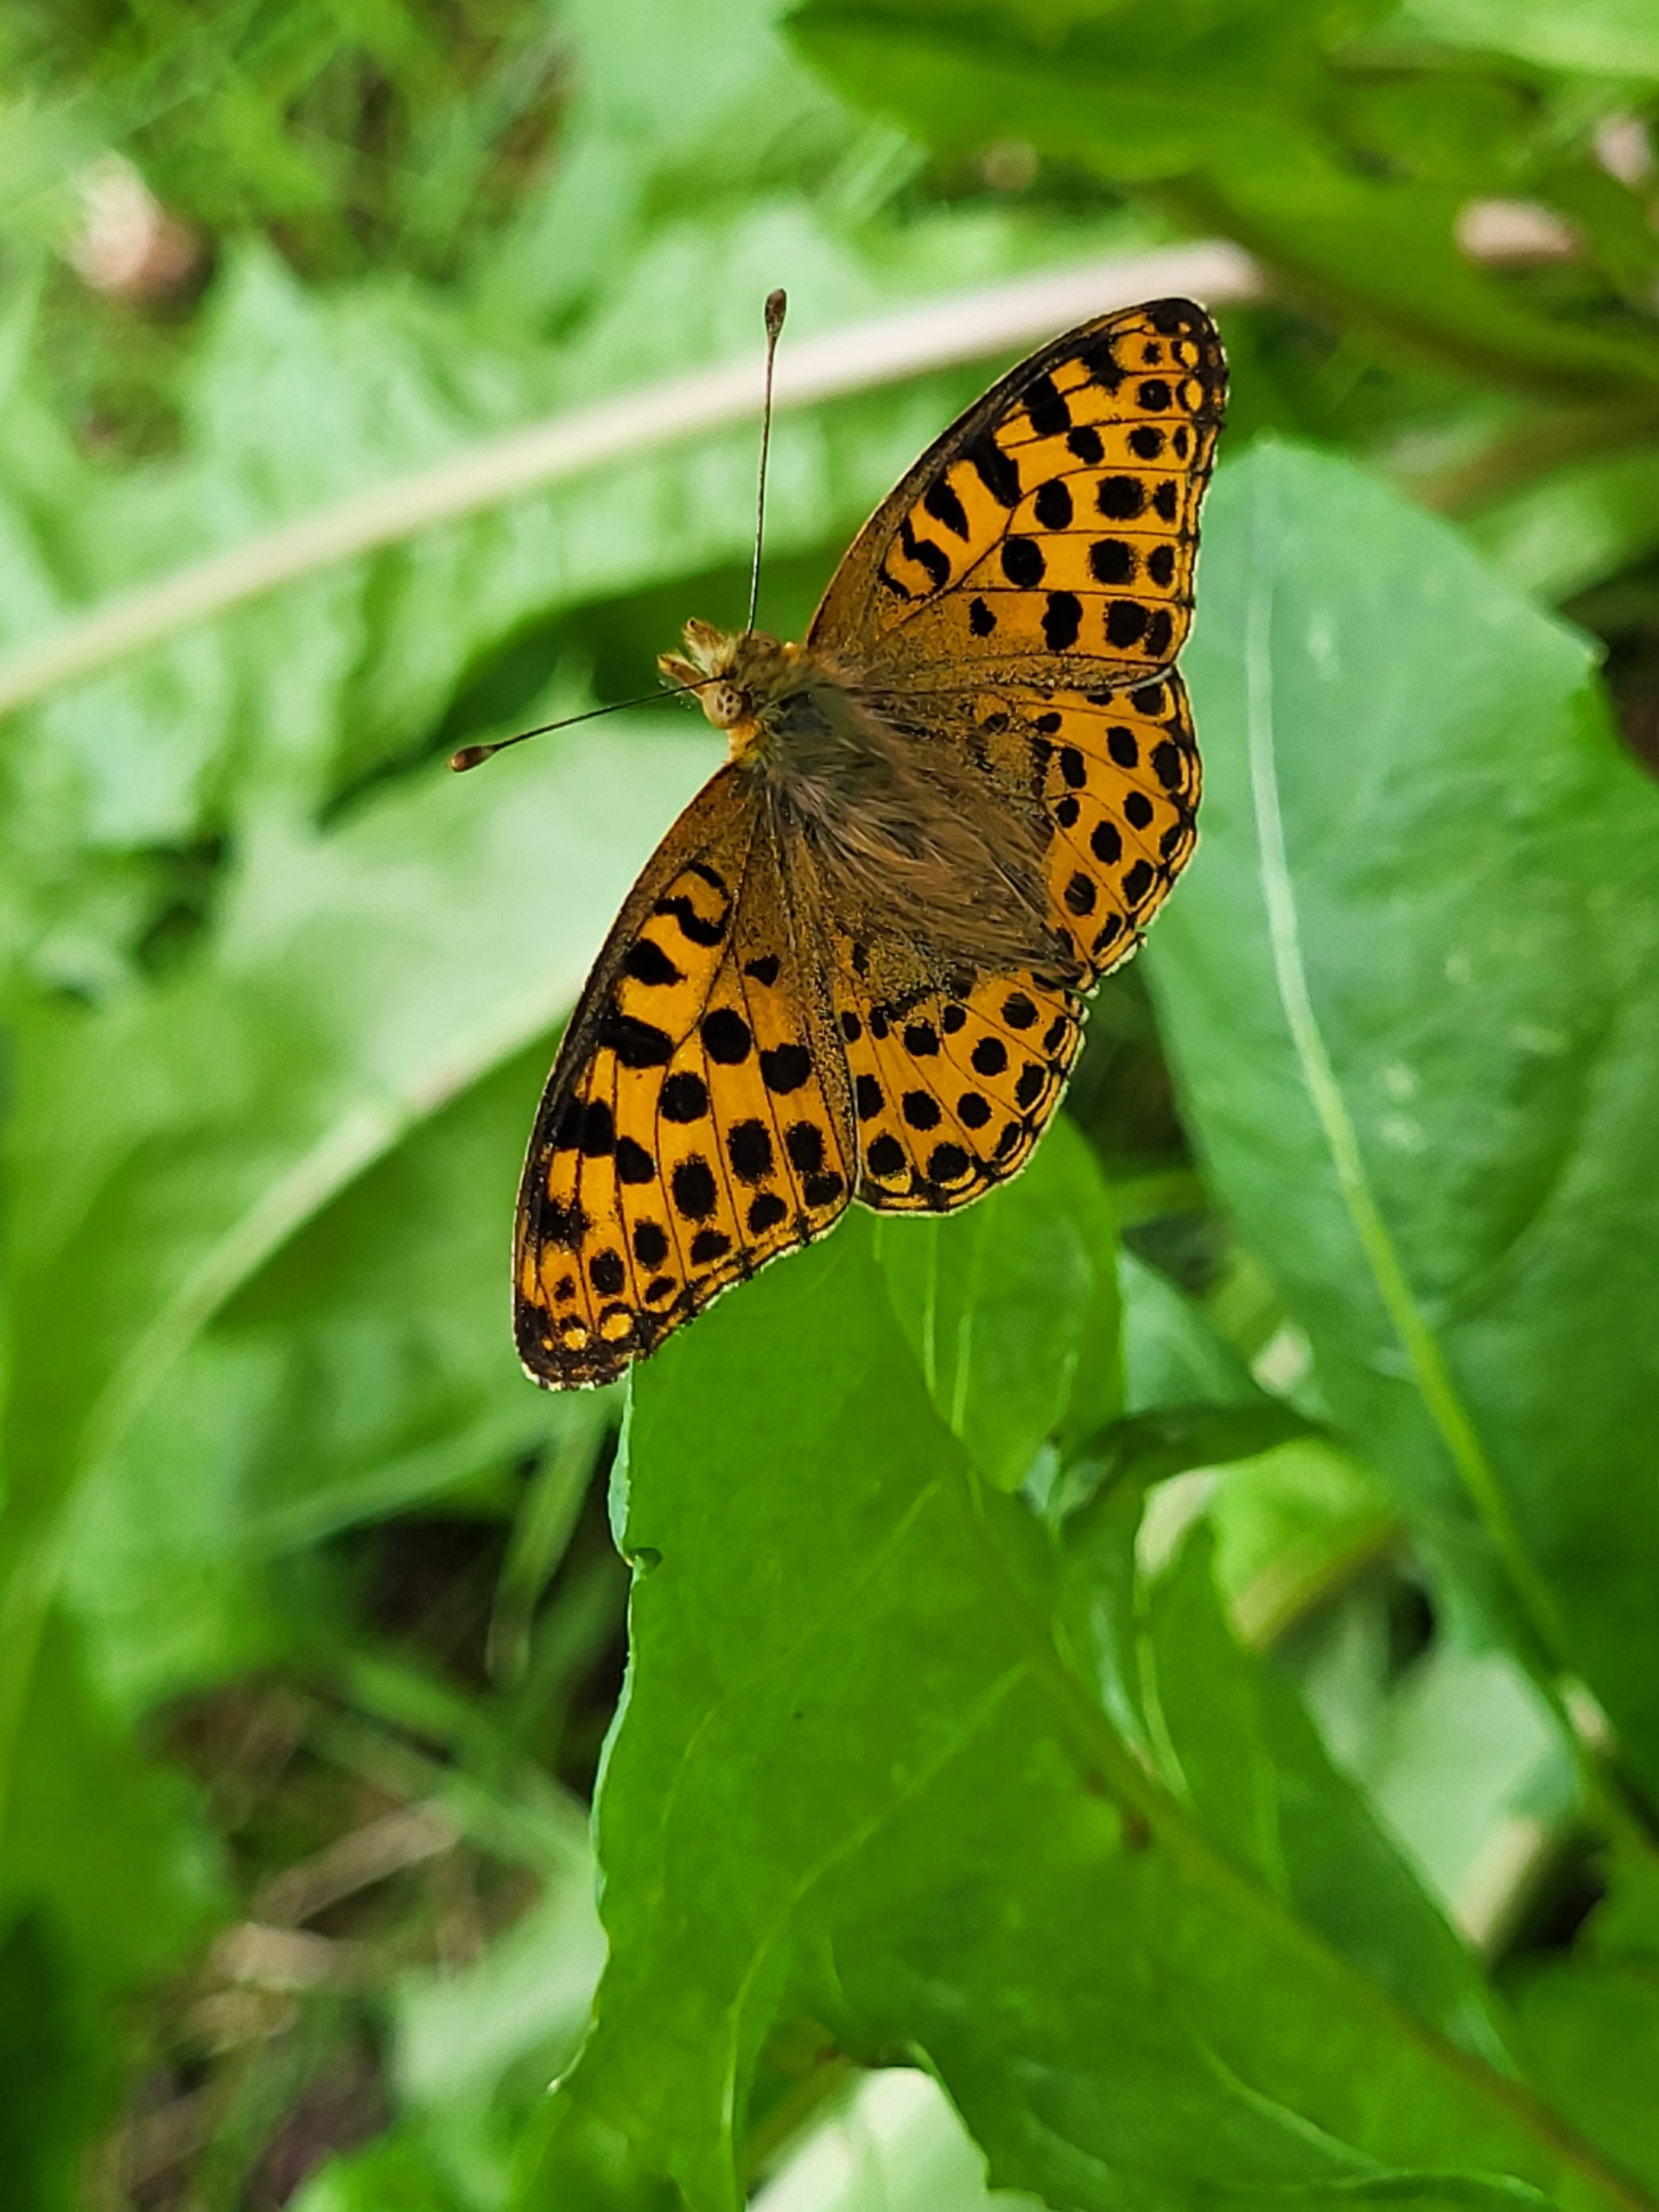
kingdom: Animalia
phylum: Arthropoda
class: Insecta
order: Lepidoptera
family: Nymphalidae
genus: Issoria
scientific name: Issoria lathonia
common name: Storplettet perlemorsommerfugl
